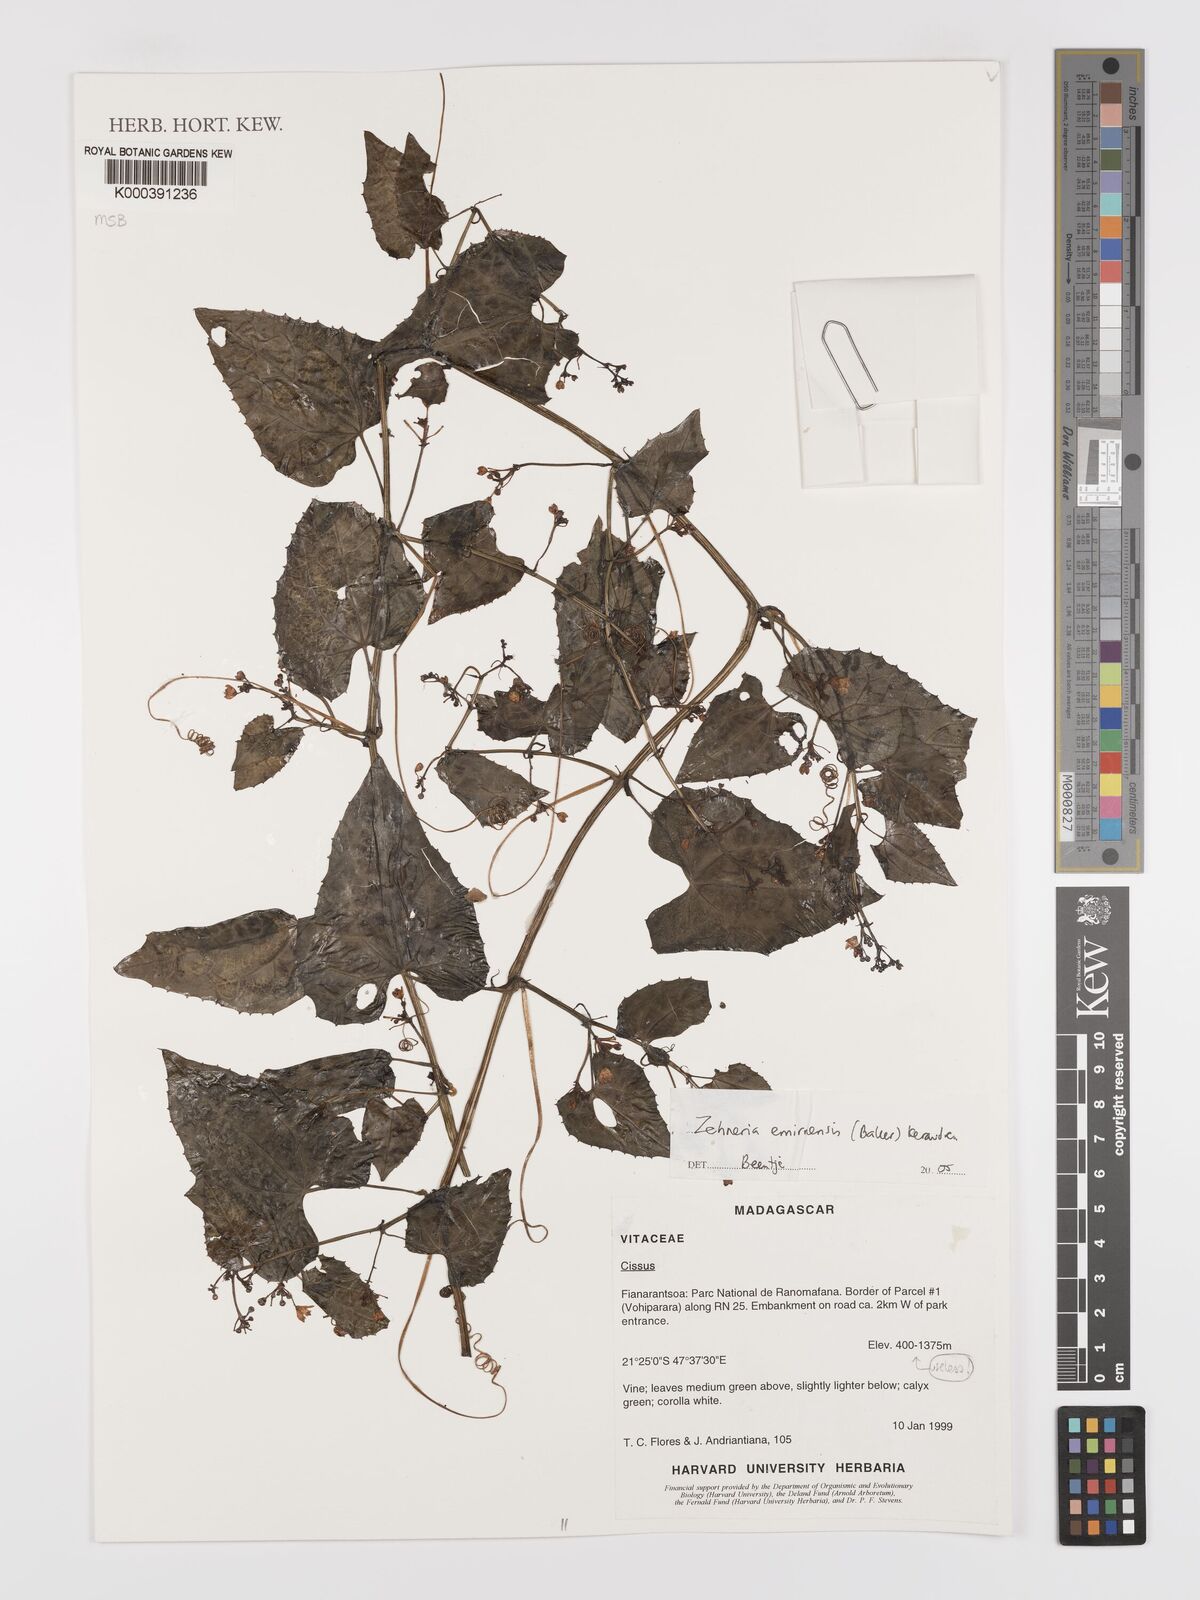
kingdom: Plantae
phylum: Tracheophyta
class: Magnoliopsida
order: Cucurbitales
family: Cucurbitaceae
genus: Zehneria
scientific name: Zehneria emirnensis
